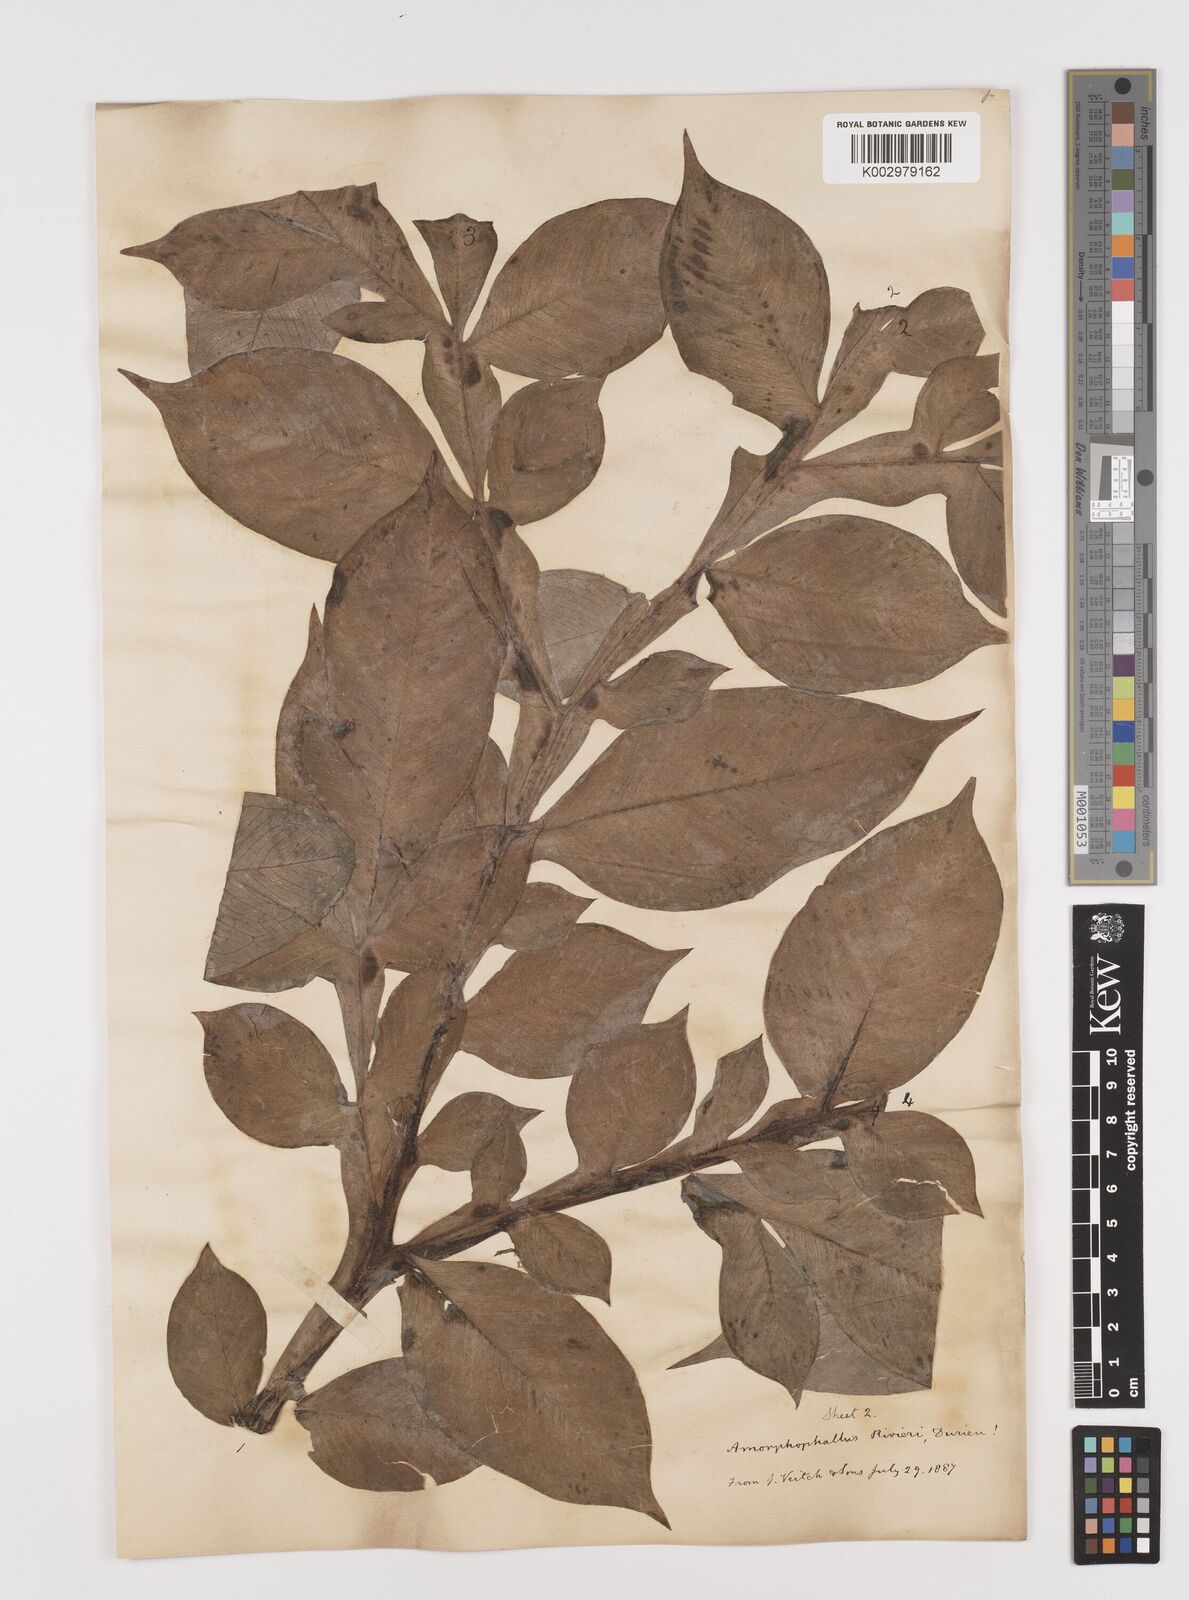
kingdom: Plantae
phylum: Tracheophyta
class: Liliopsida
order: Alismatales
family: Araceae
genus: Amorphophallus
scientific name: Amorphophallus konjac
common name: Umbrella arum
